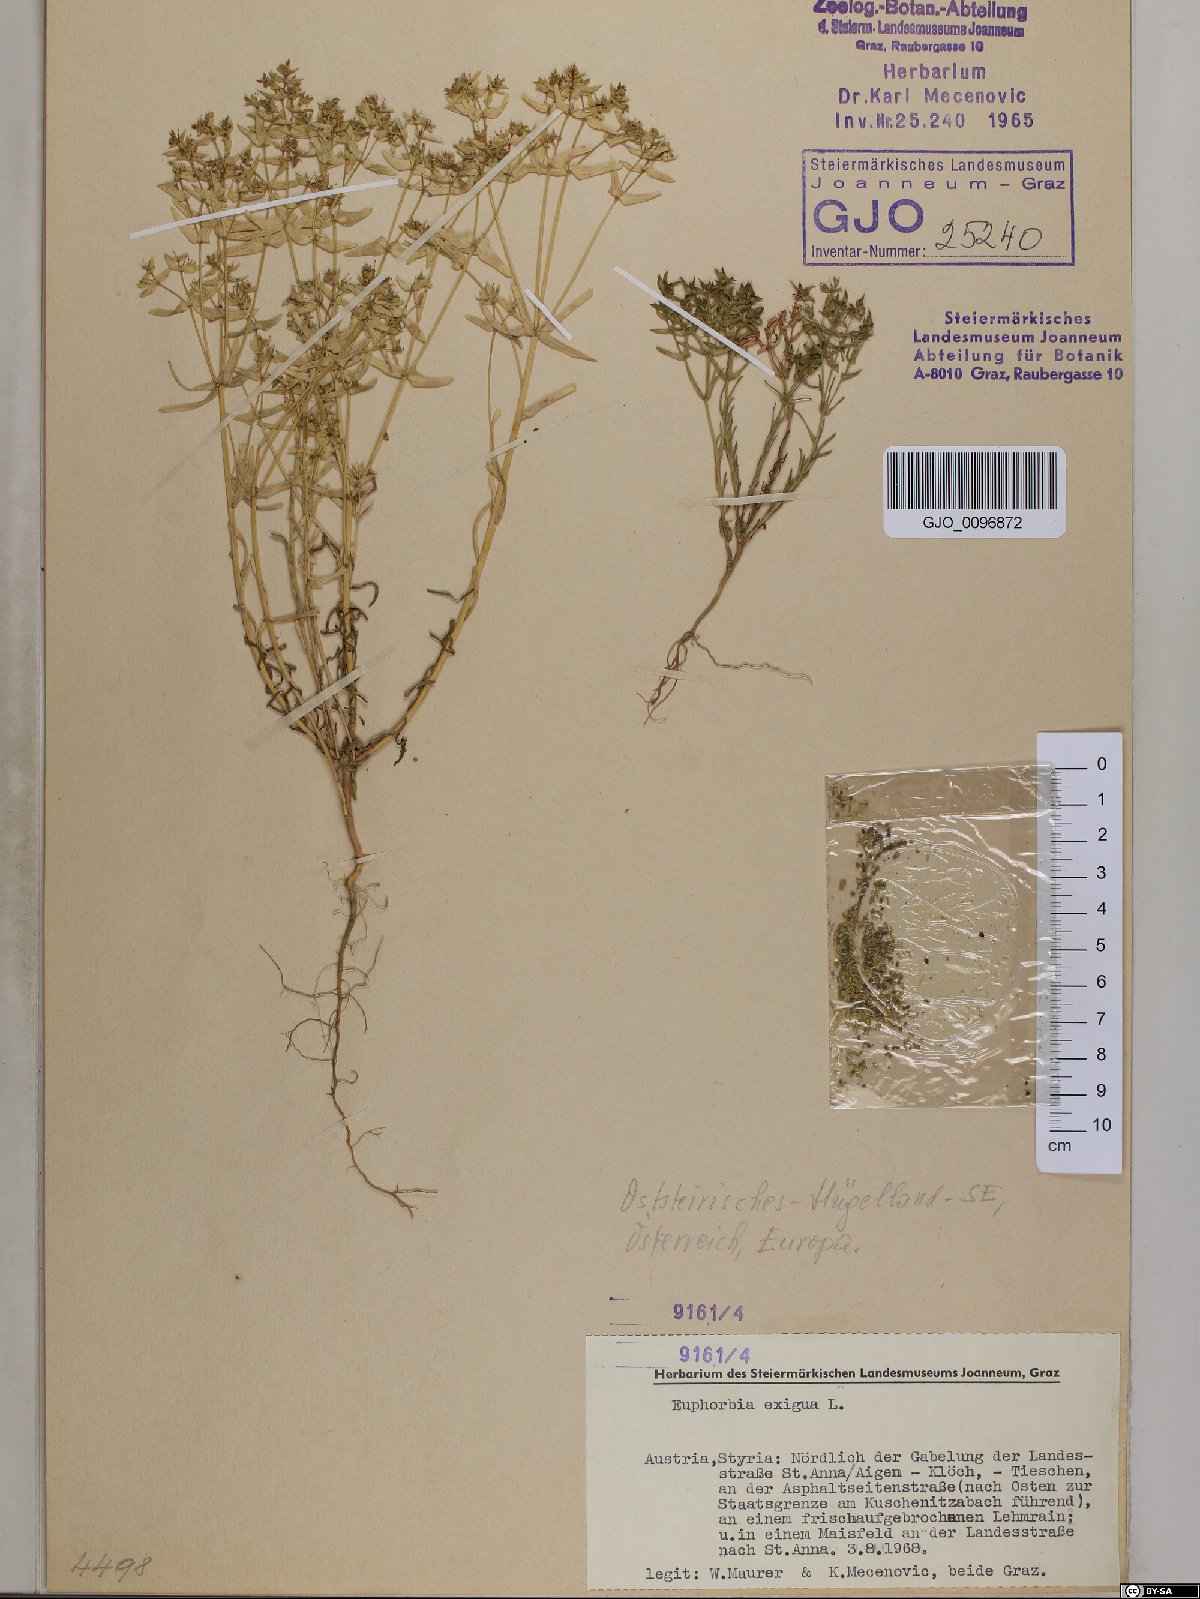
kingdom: Plantae
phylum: Tracheophyta
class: Magnoliopsida
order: Malpighiales
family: Euphorbiaceae
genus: Euphorbia
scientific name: Euphorbia exigua
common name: Dwarf spurge
